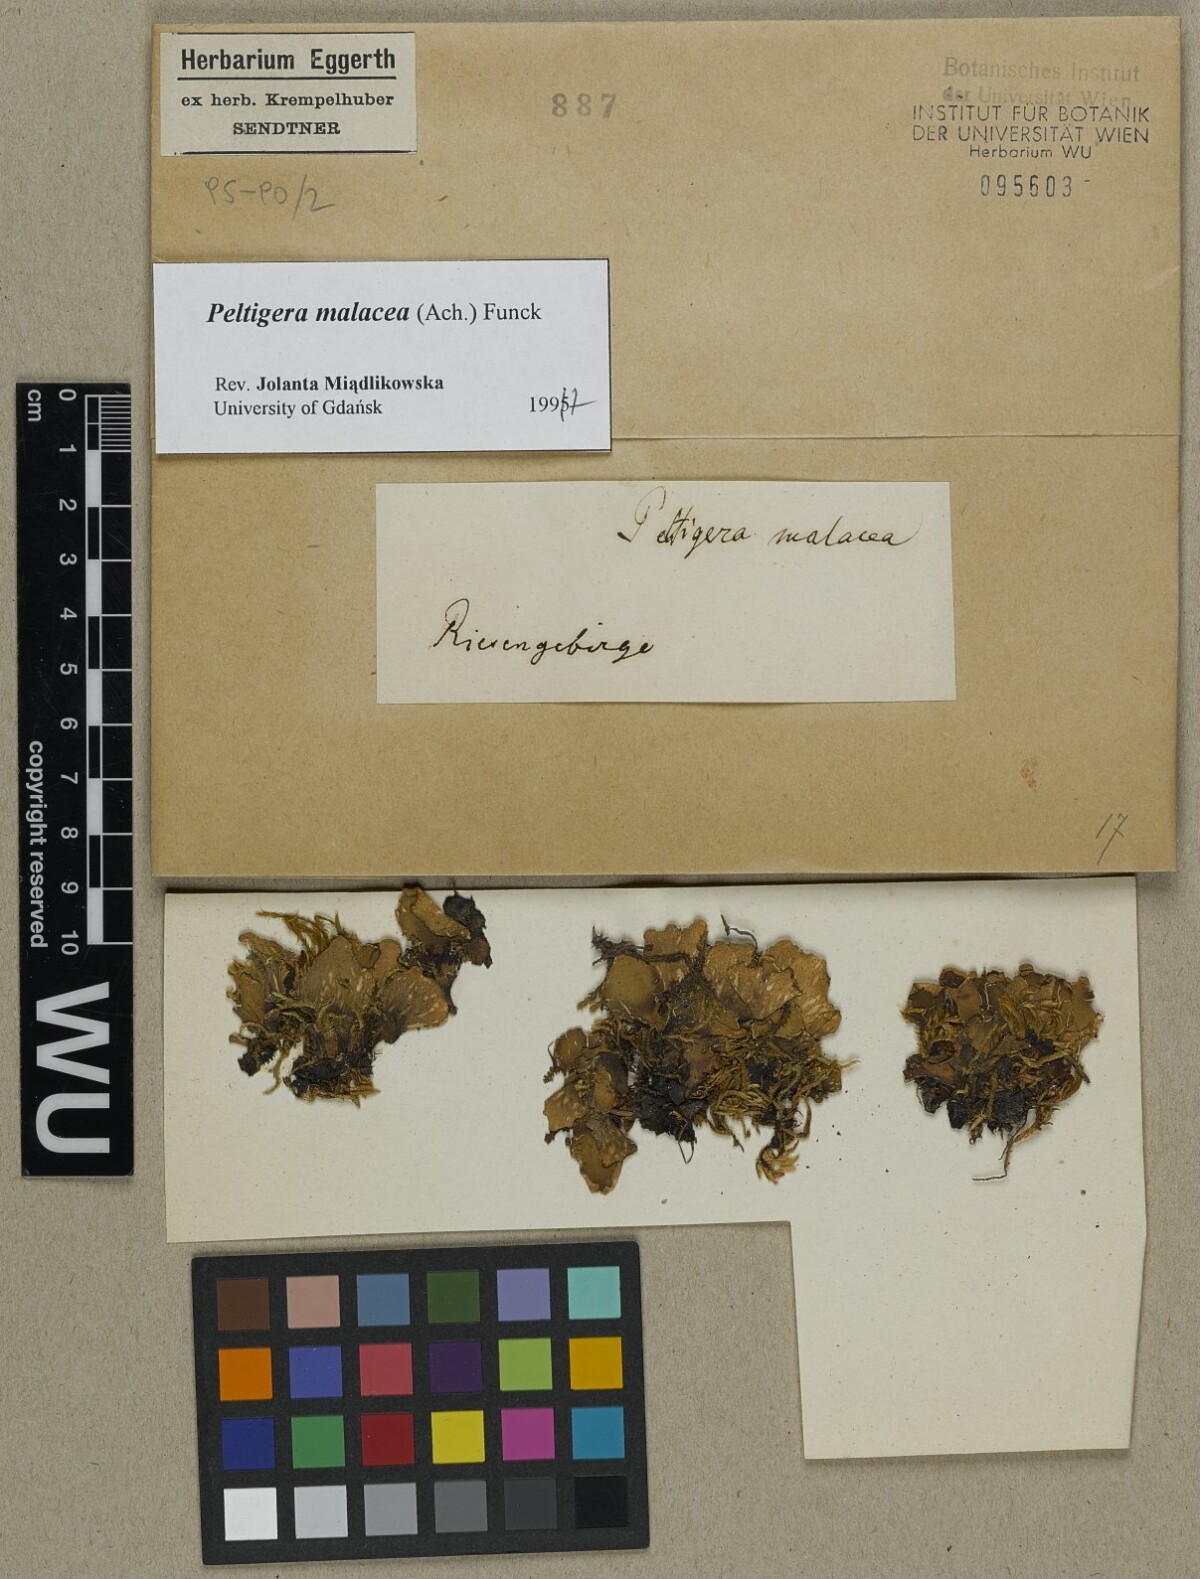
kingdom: Fungi
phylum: Ascomycota
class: Lecanoromycetes
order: Peltigerales
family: Peltigeraceae
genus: Peltigera
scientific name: Peltigera malacea
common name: Matt felt lichen
